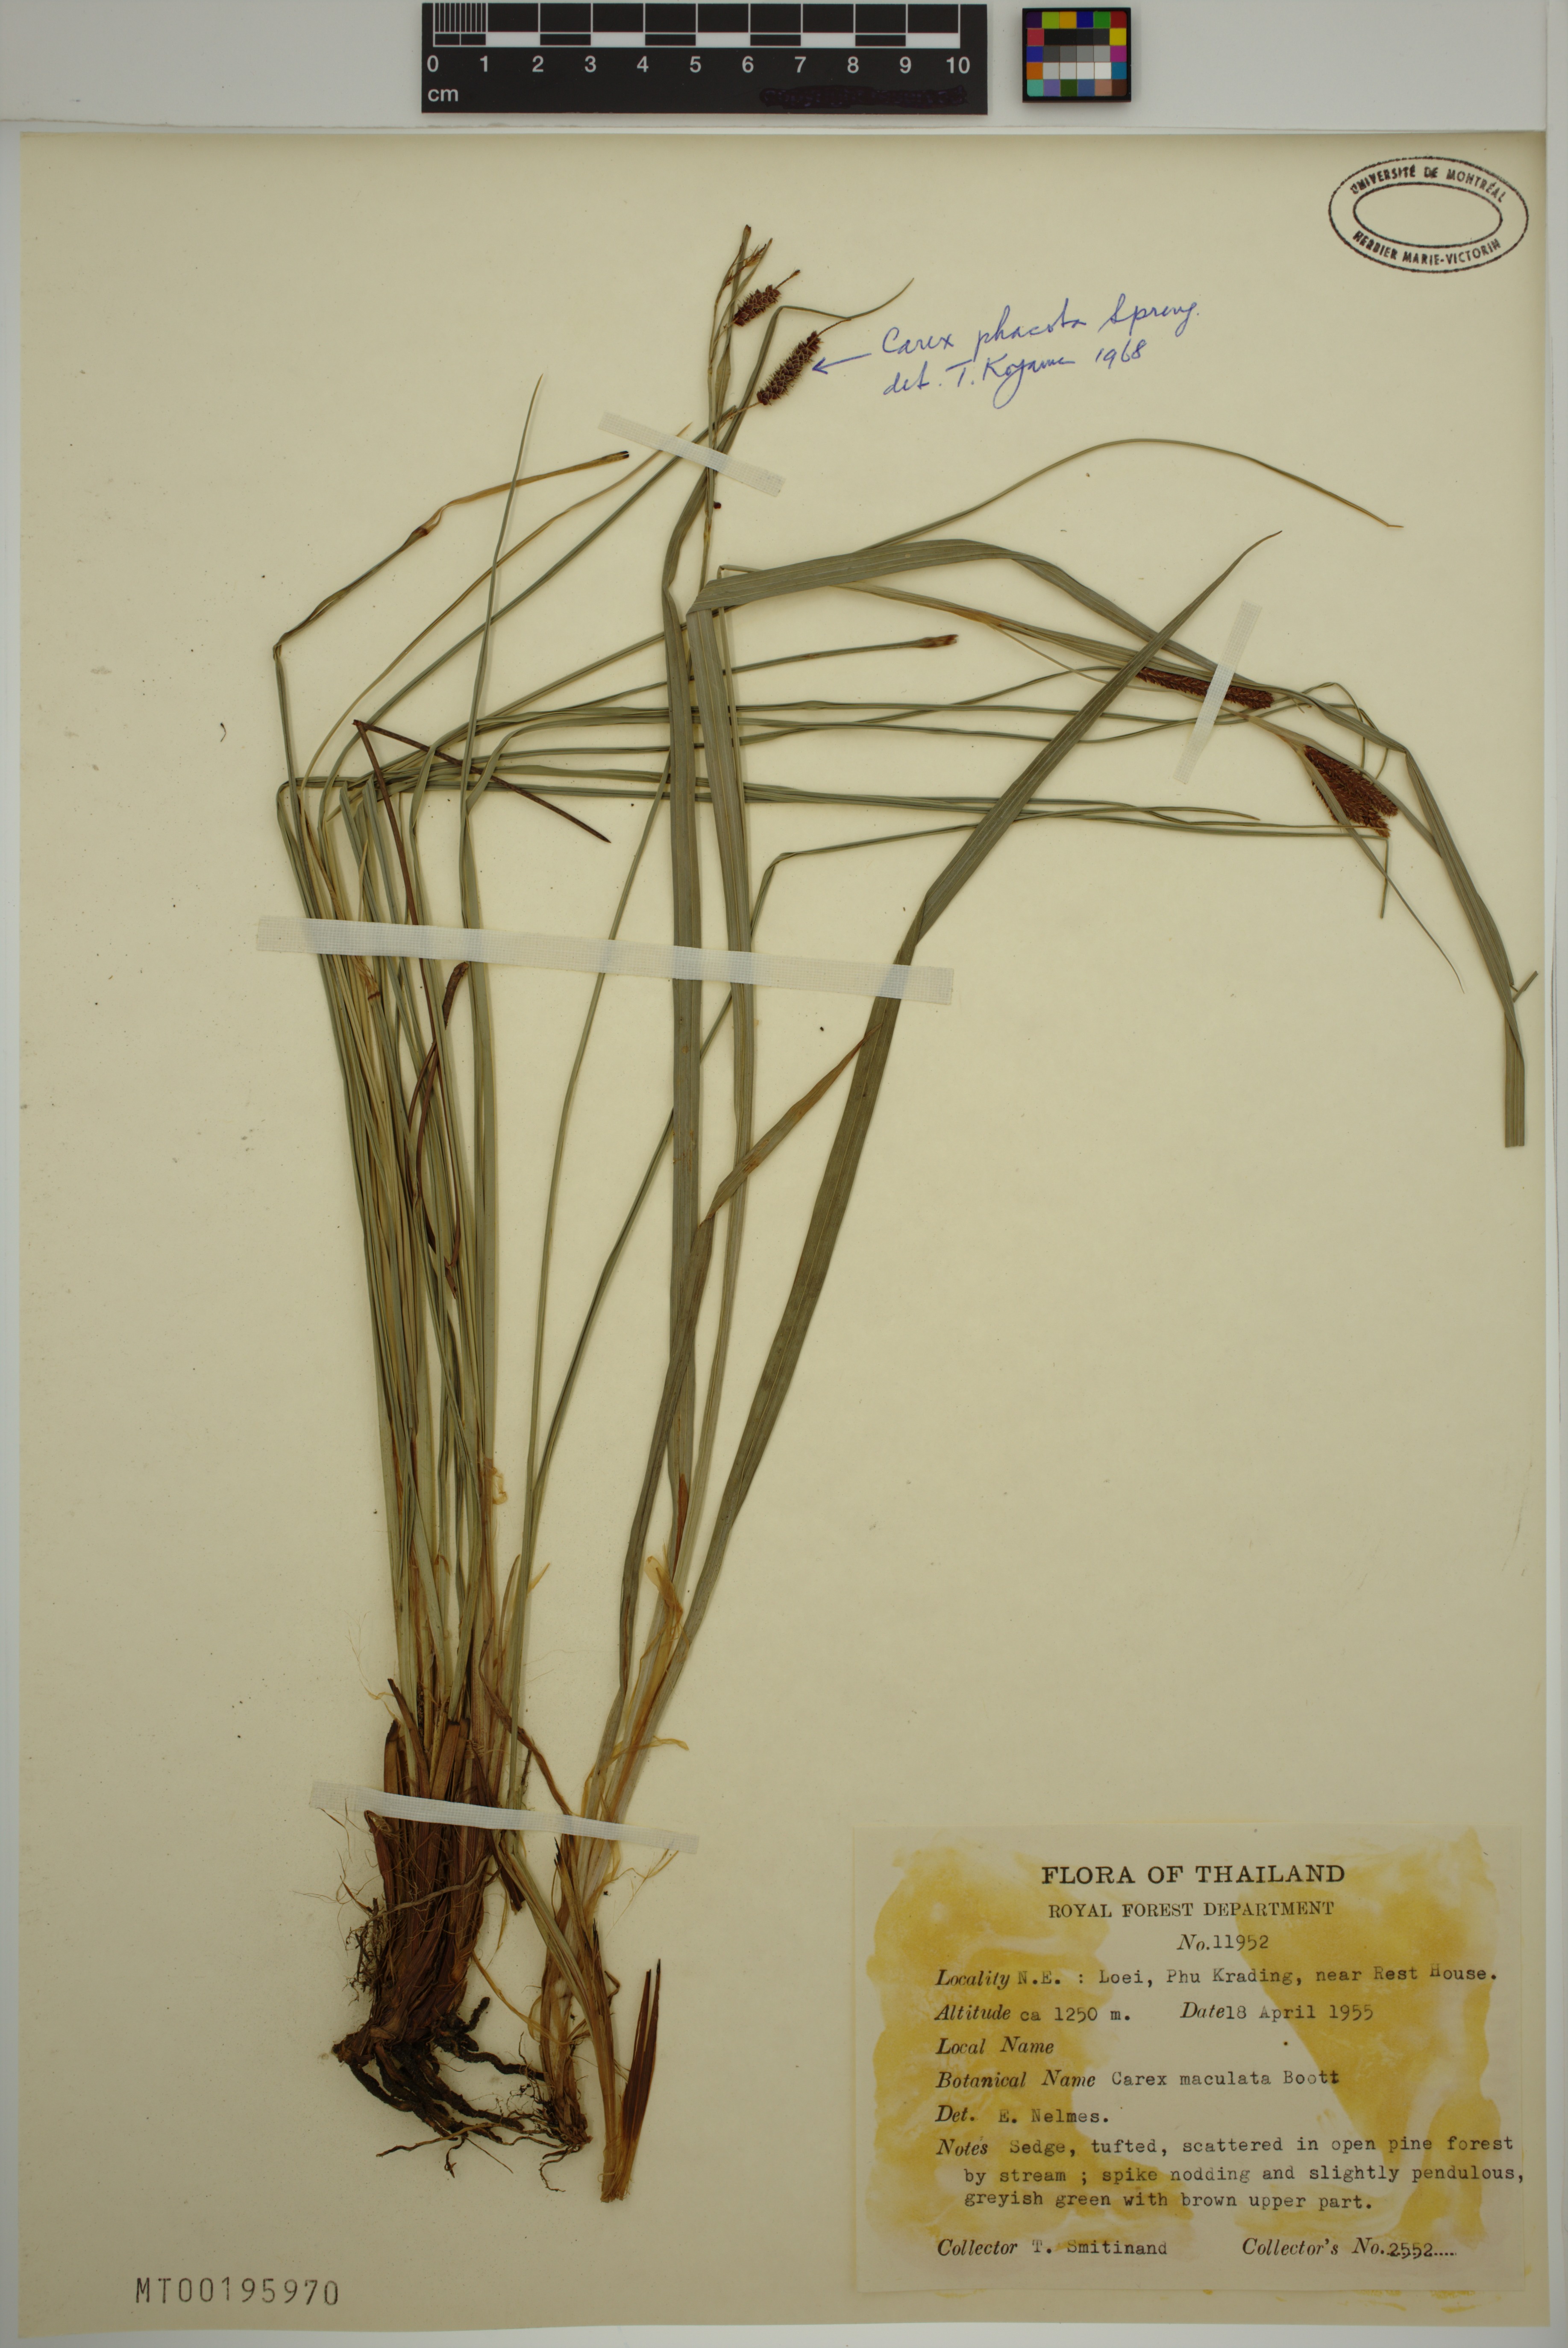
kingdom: Plantae
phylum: Tracheophyta
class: Liliopsida
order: Poales
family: Cyperaceae
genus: Carex
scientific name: Carex phacota
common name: Lakeshore sedge
